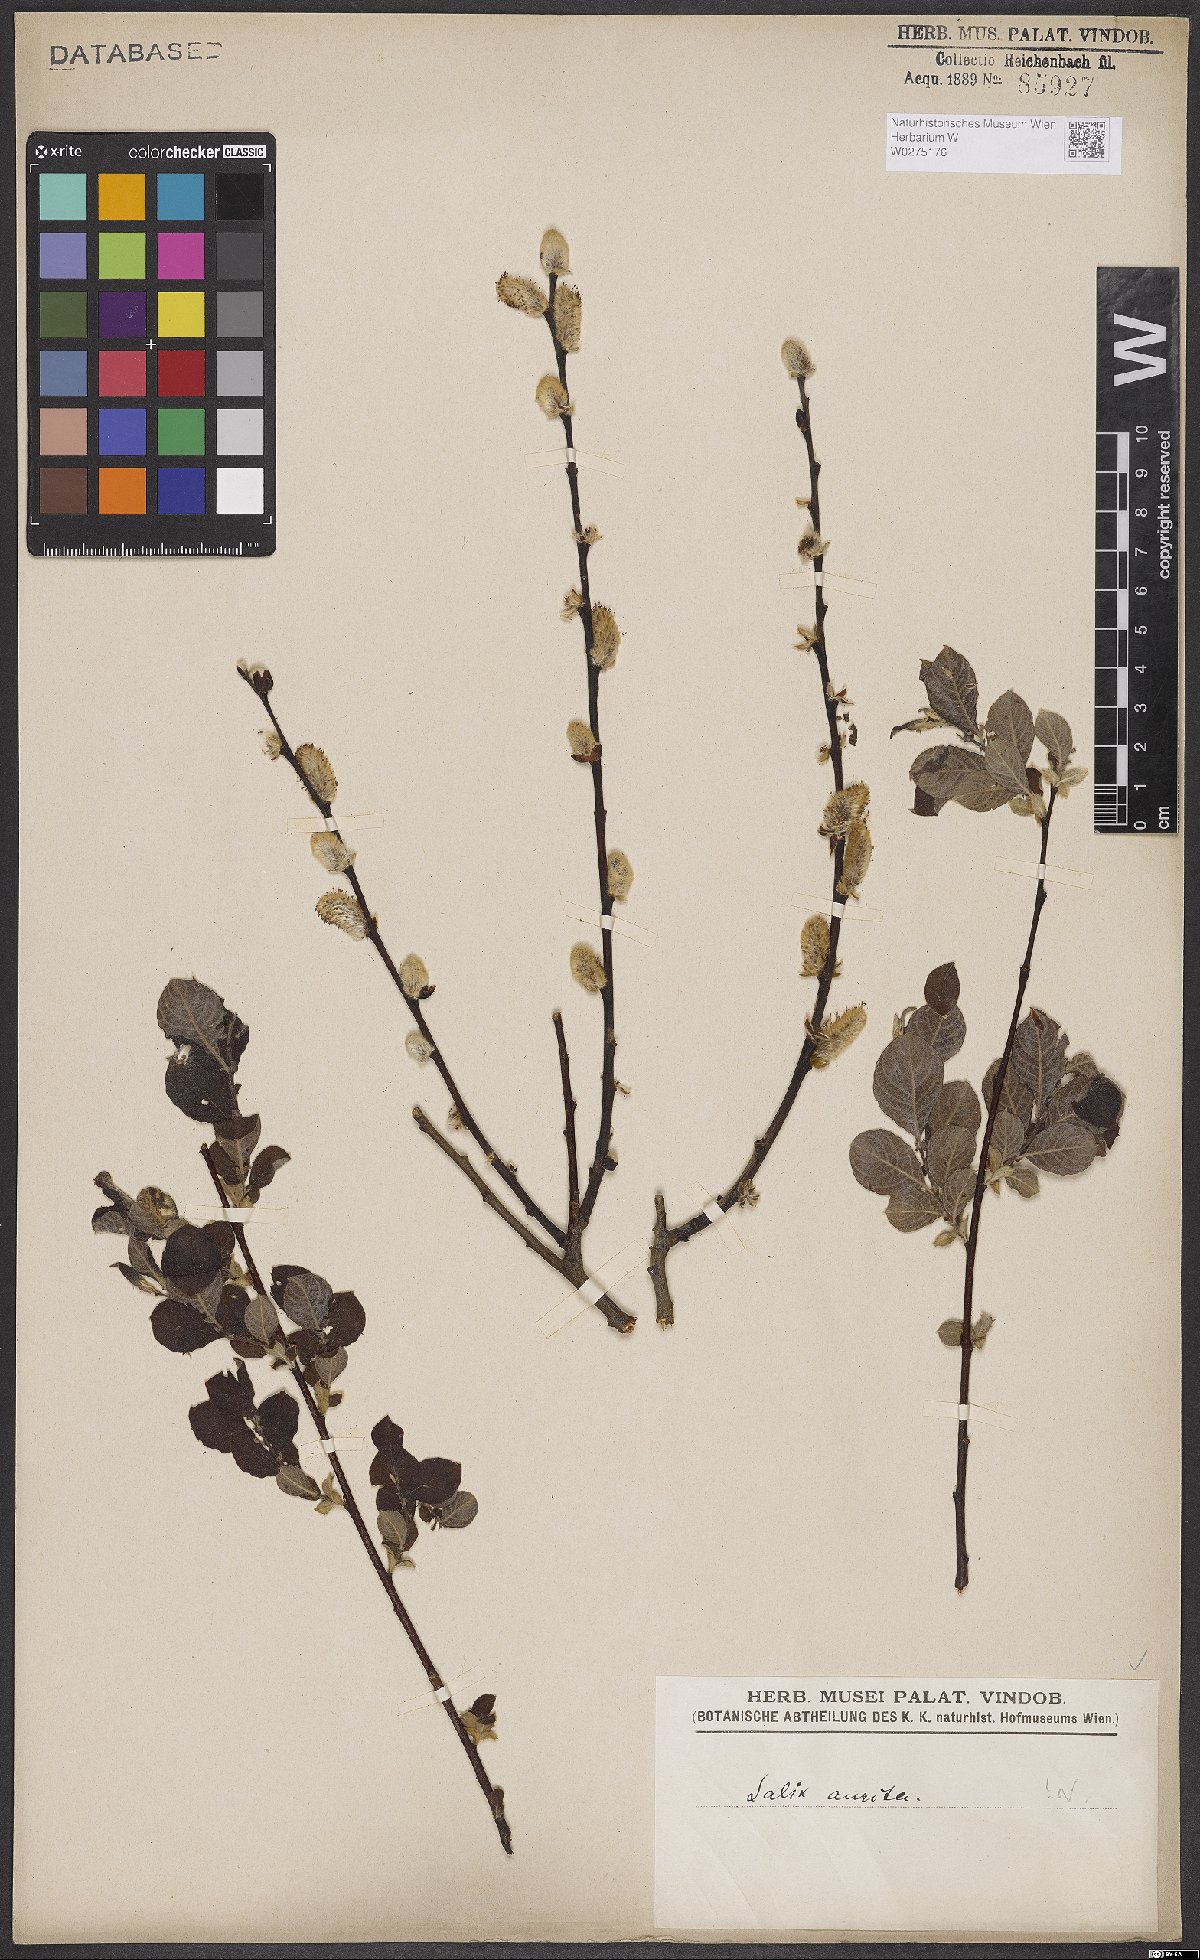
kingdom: Plantae
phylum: Tracheophyta
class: Magnoliopsida
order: Malpighiales
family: Salicaceae
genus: Salix
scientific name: Salix aurita
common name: Eared willow
